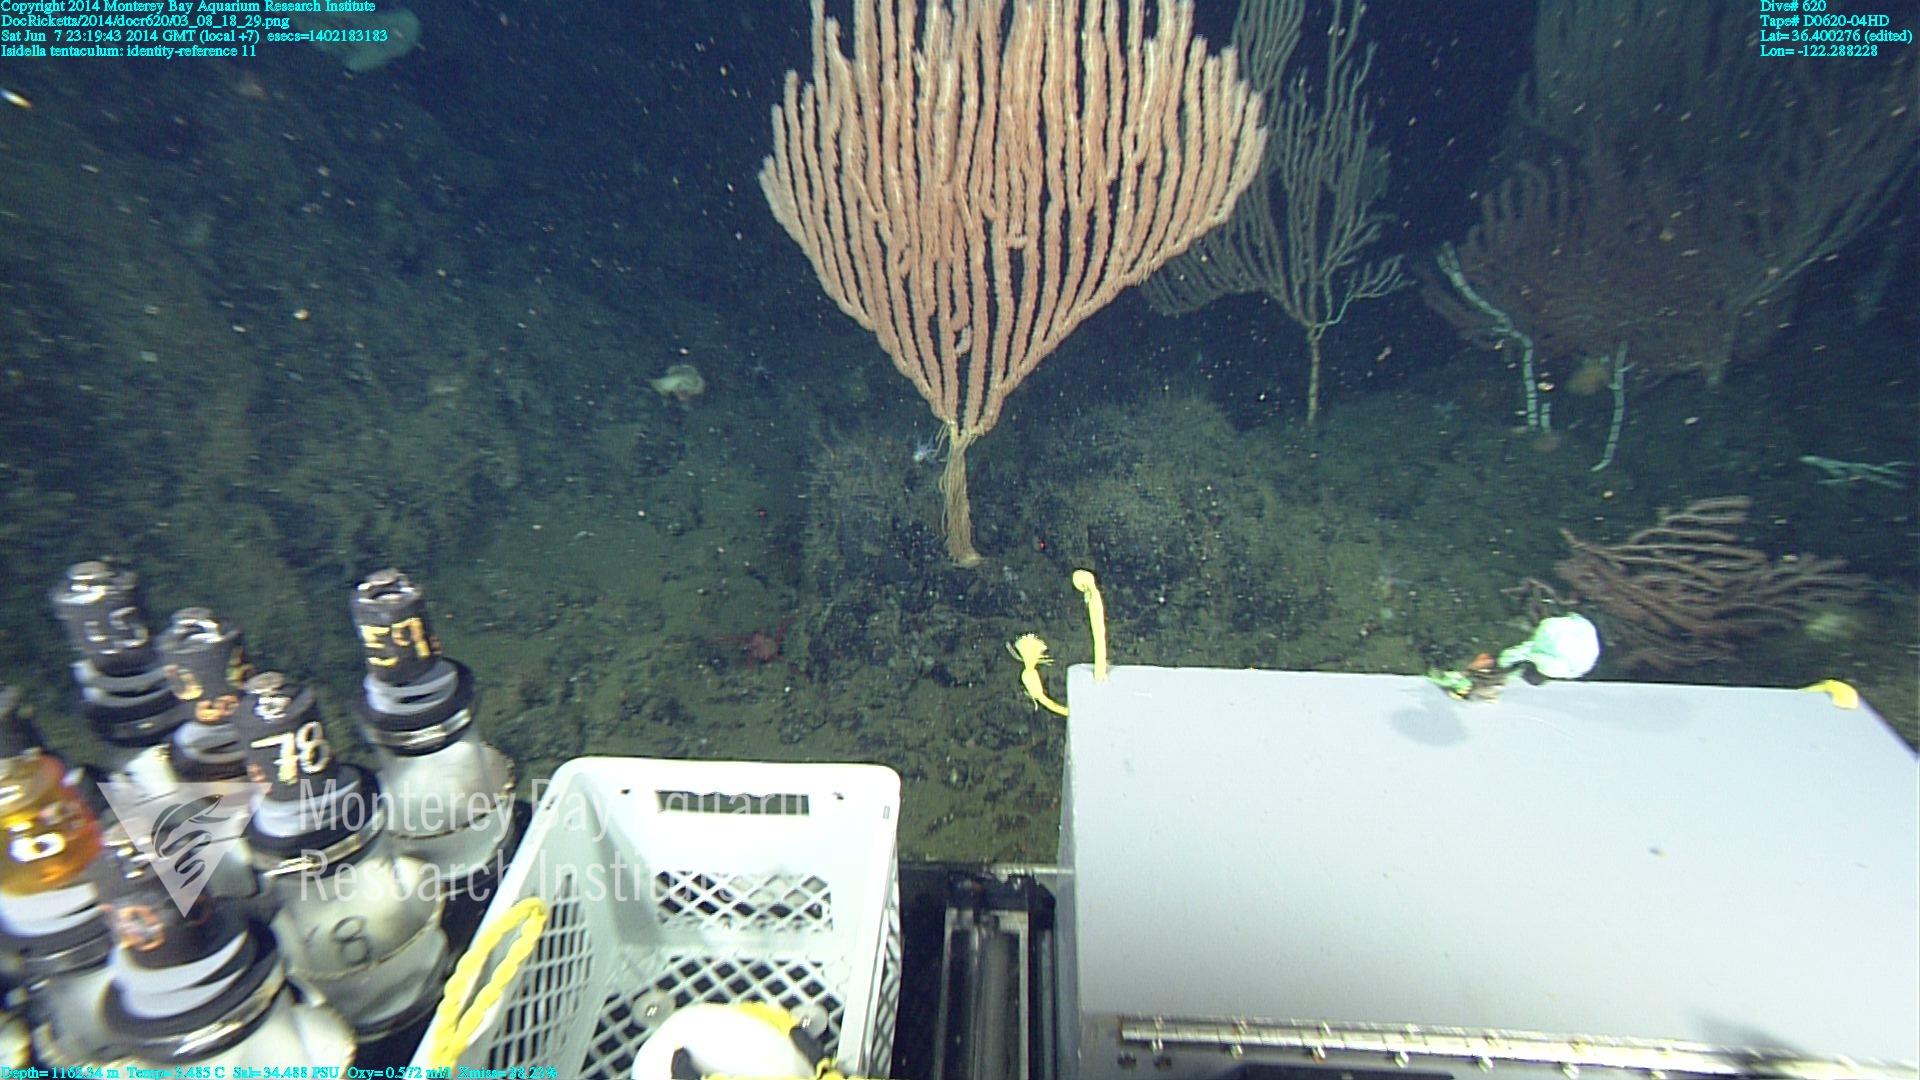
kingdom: Animalia
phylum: Cnidaria
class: Anthozoa
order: Scleralcyonacea
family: Keratoisididae
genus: Isidella
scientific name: Isidella tentaculum
